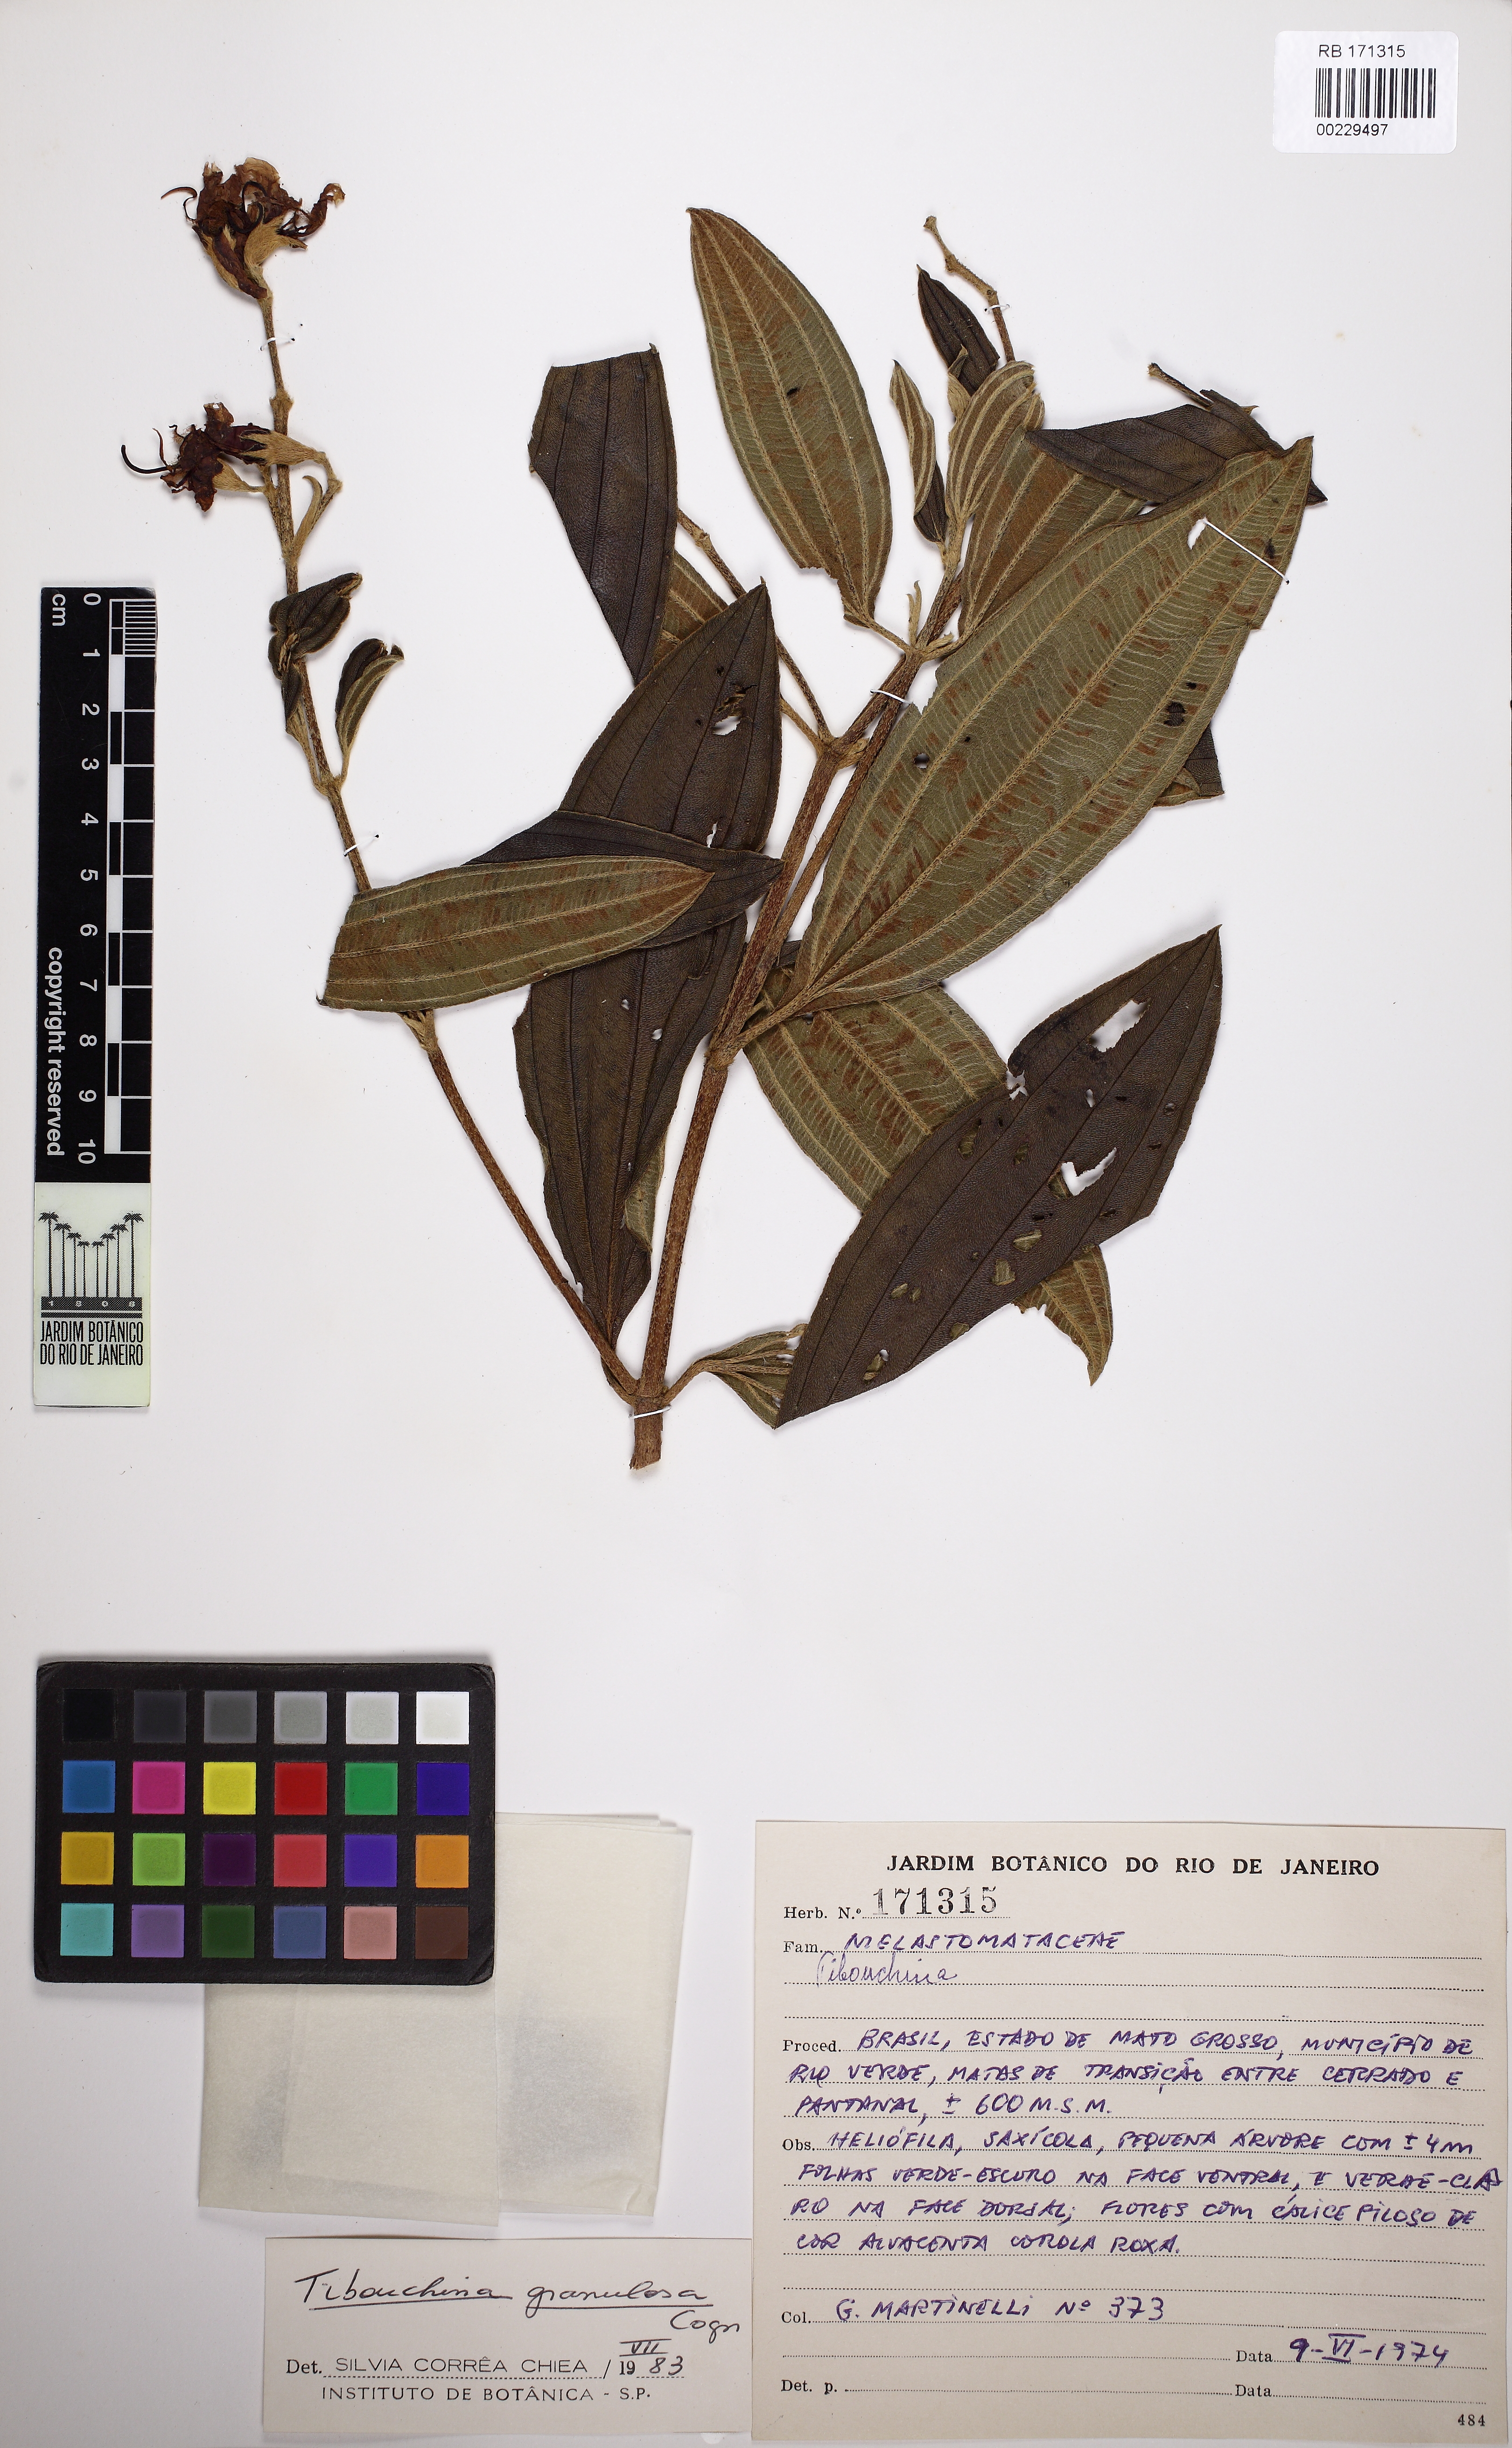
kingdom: Plantae
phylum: Tracheophyta
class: Magnoliopsida
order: Myrtales
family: Melastomataceae
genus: Pleroma
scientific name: Pleroma granulosum
